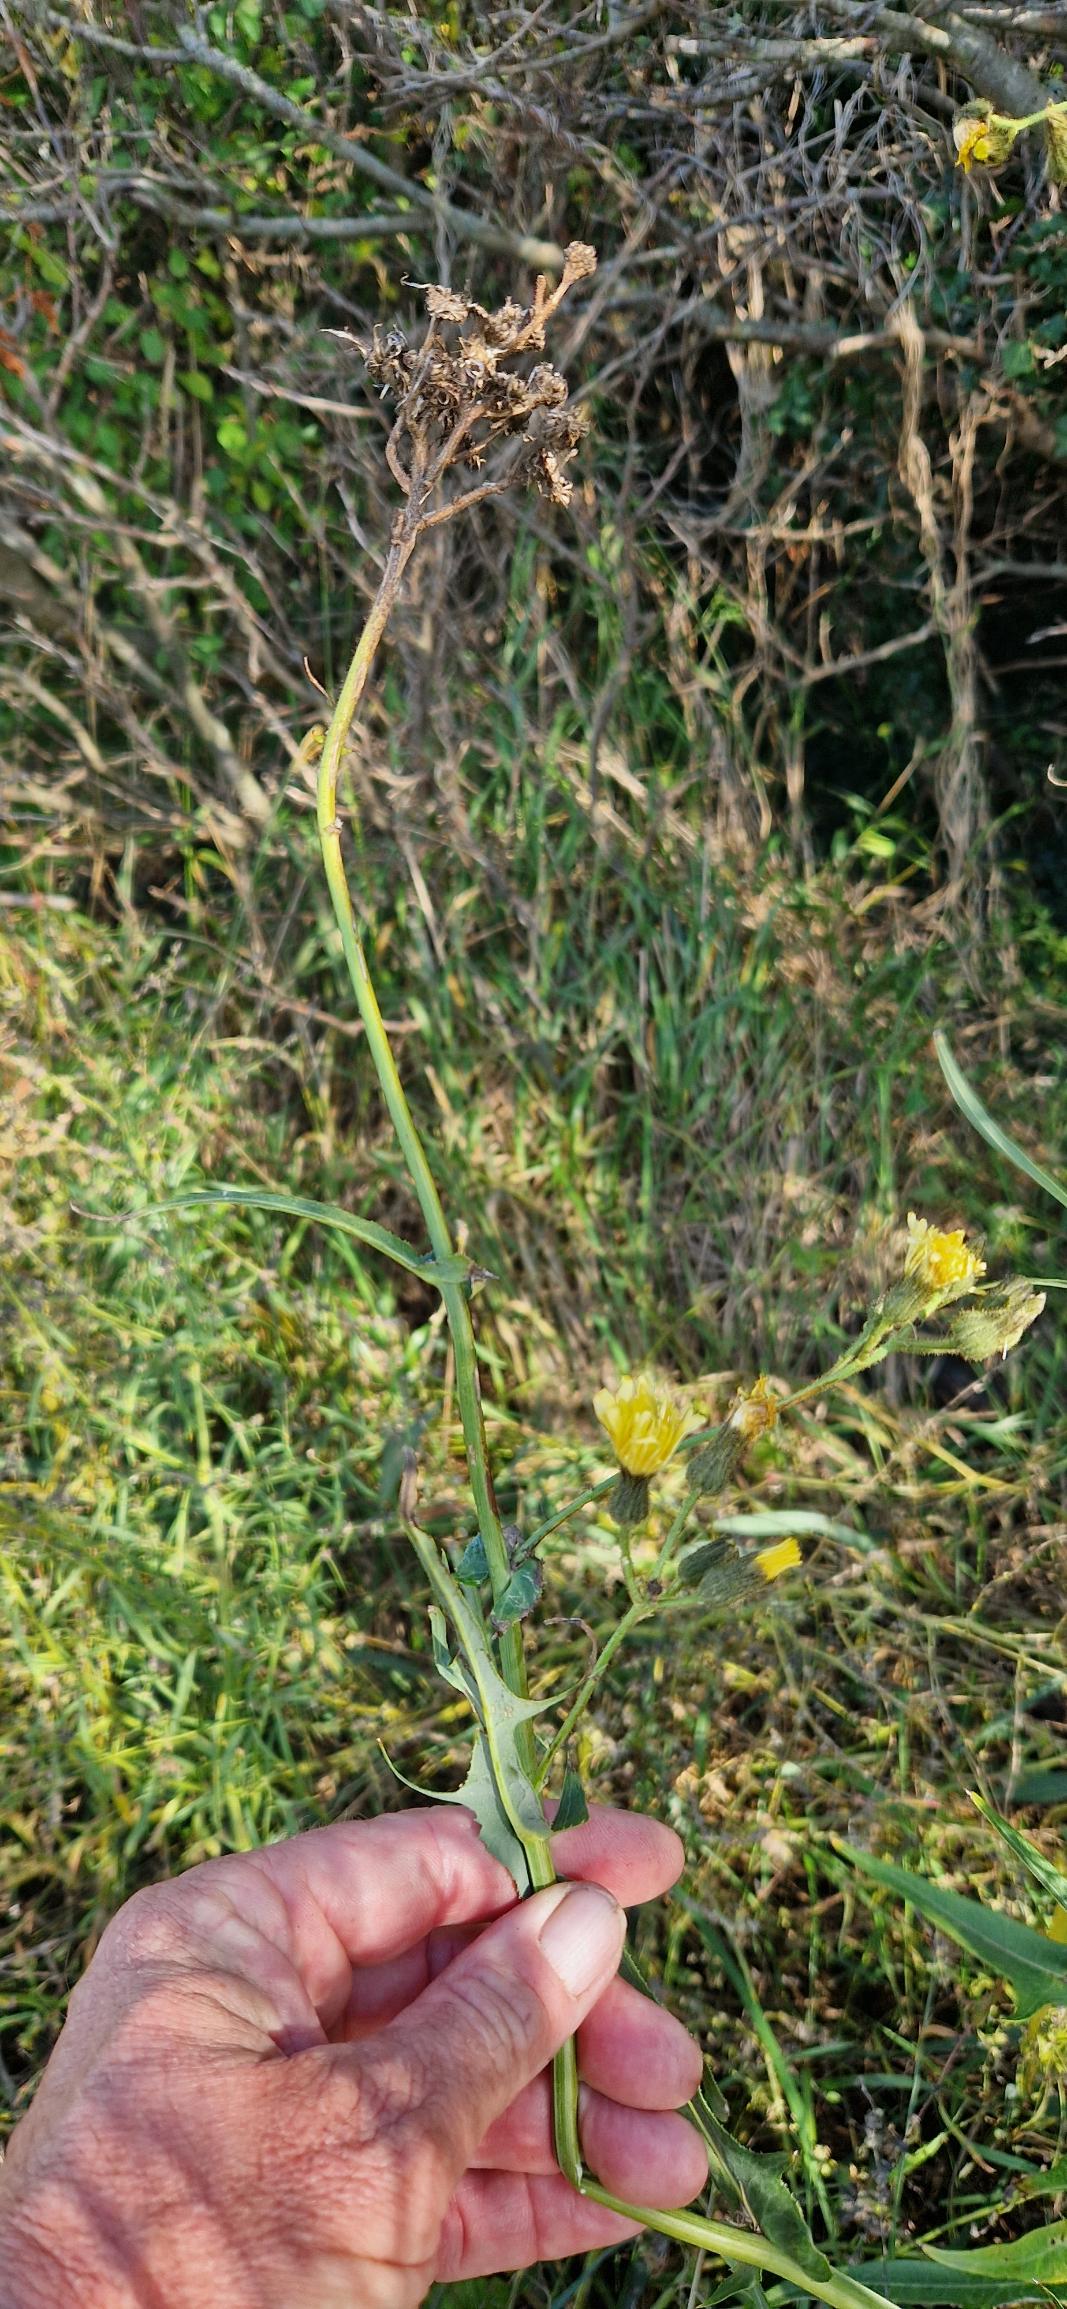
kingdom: Plantae
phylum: Tracheophyta
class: Magnoliopsida
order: Asterales
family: Asteraceae
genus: Sonchus
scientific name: Sonchus palustris
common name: Kær-svinemælk
